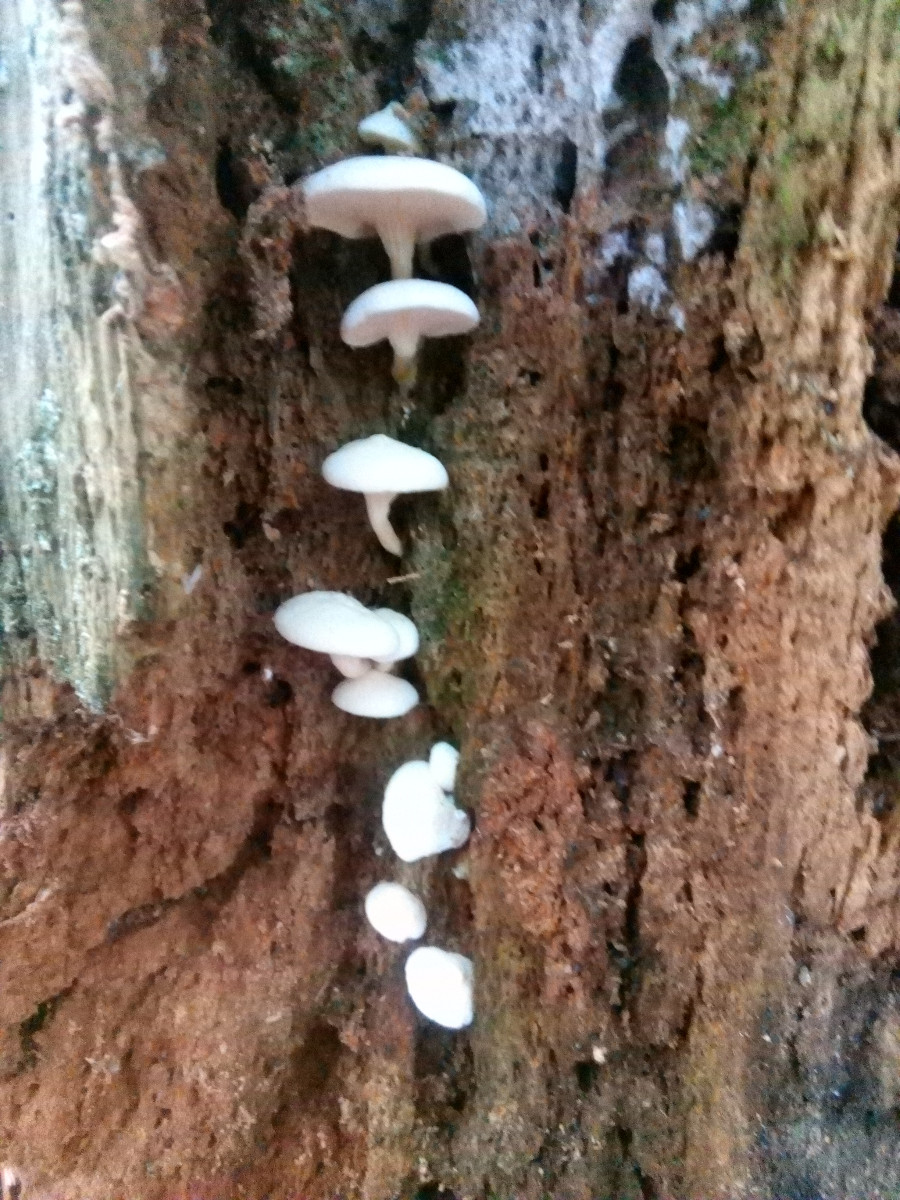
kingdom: Fungi
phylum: Basidiomycota
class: Agaricomycetes
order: Boletales
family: Hygrophoropsidaceae
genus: Hygrophoropsis
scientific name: Hygrophoropsis pallida
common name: bleg orangekantarel
